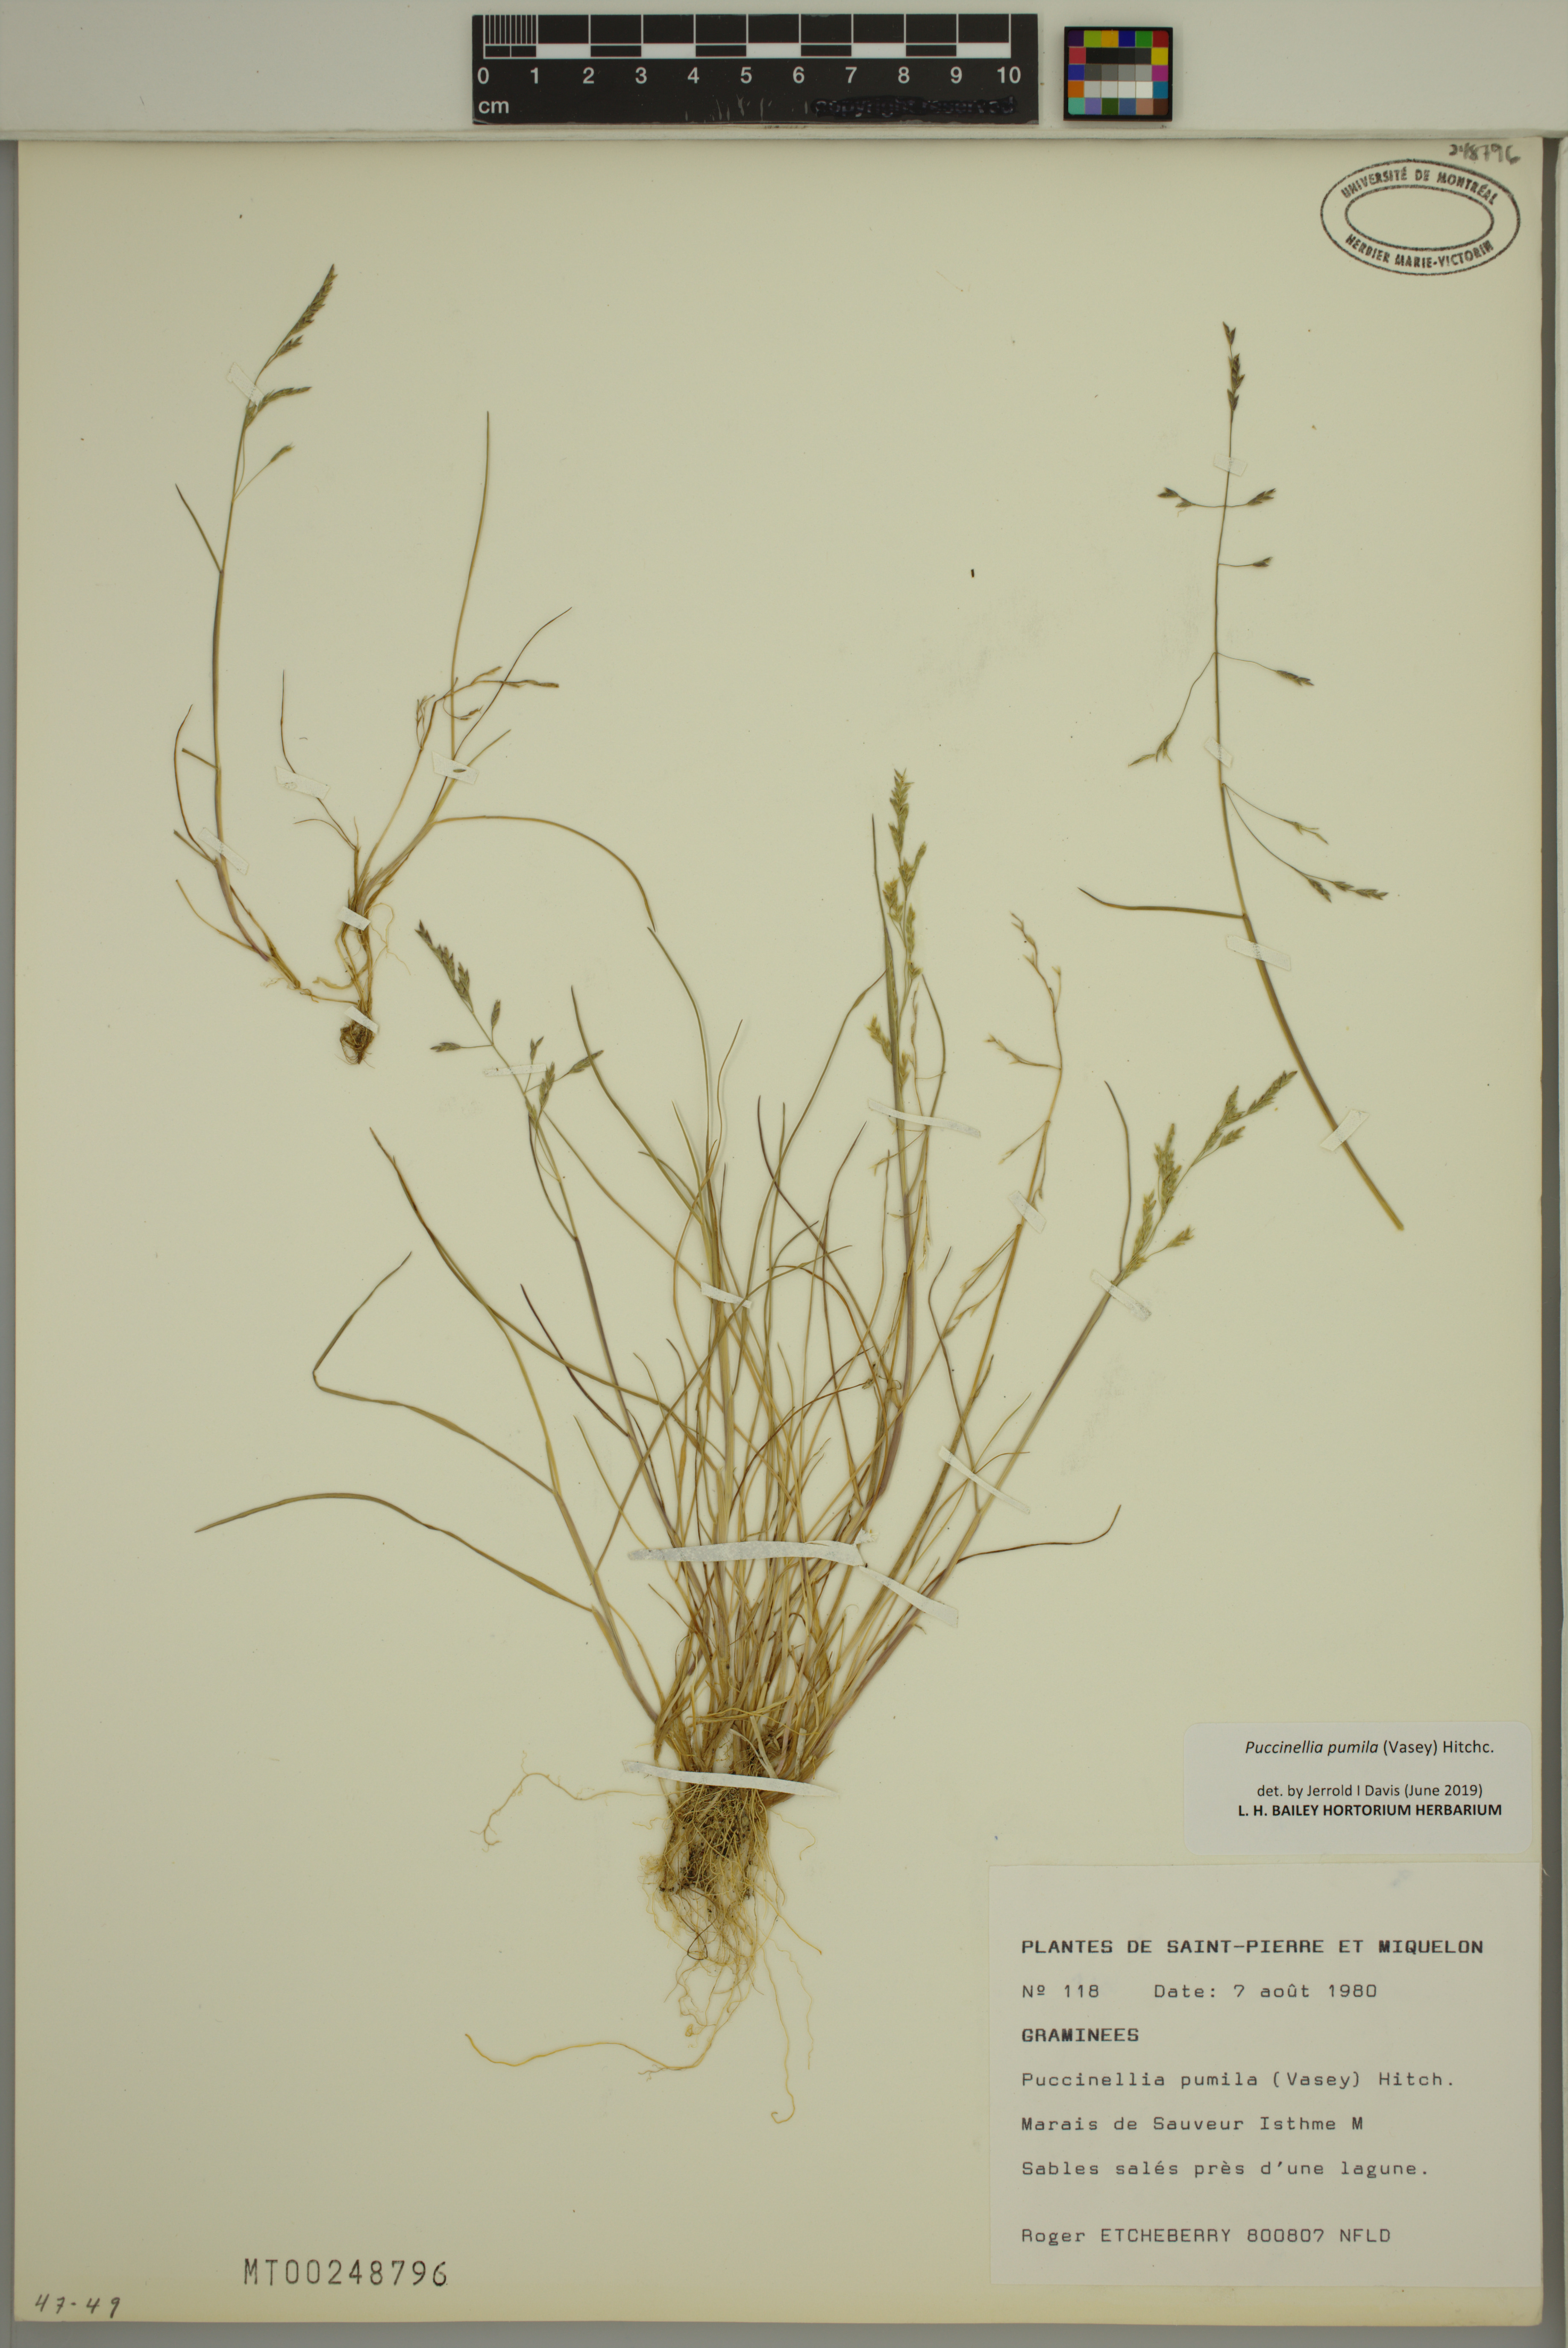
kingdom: Plantae
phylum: Tracheophyta
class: Liliopsida
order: Poales
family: Poaceae
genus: Puccinellia
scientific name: Puccinellia pumila
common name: Dwarf alkaligrass
